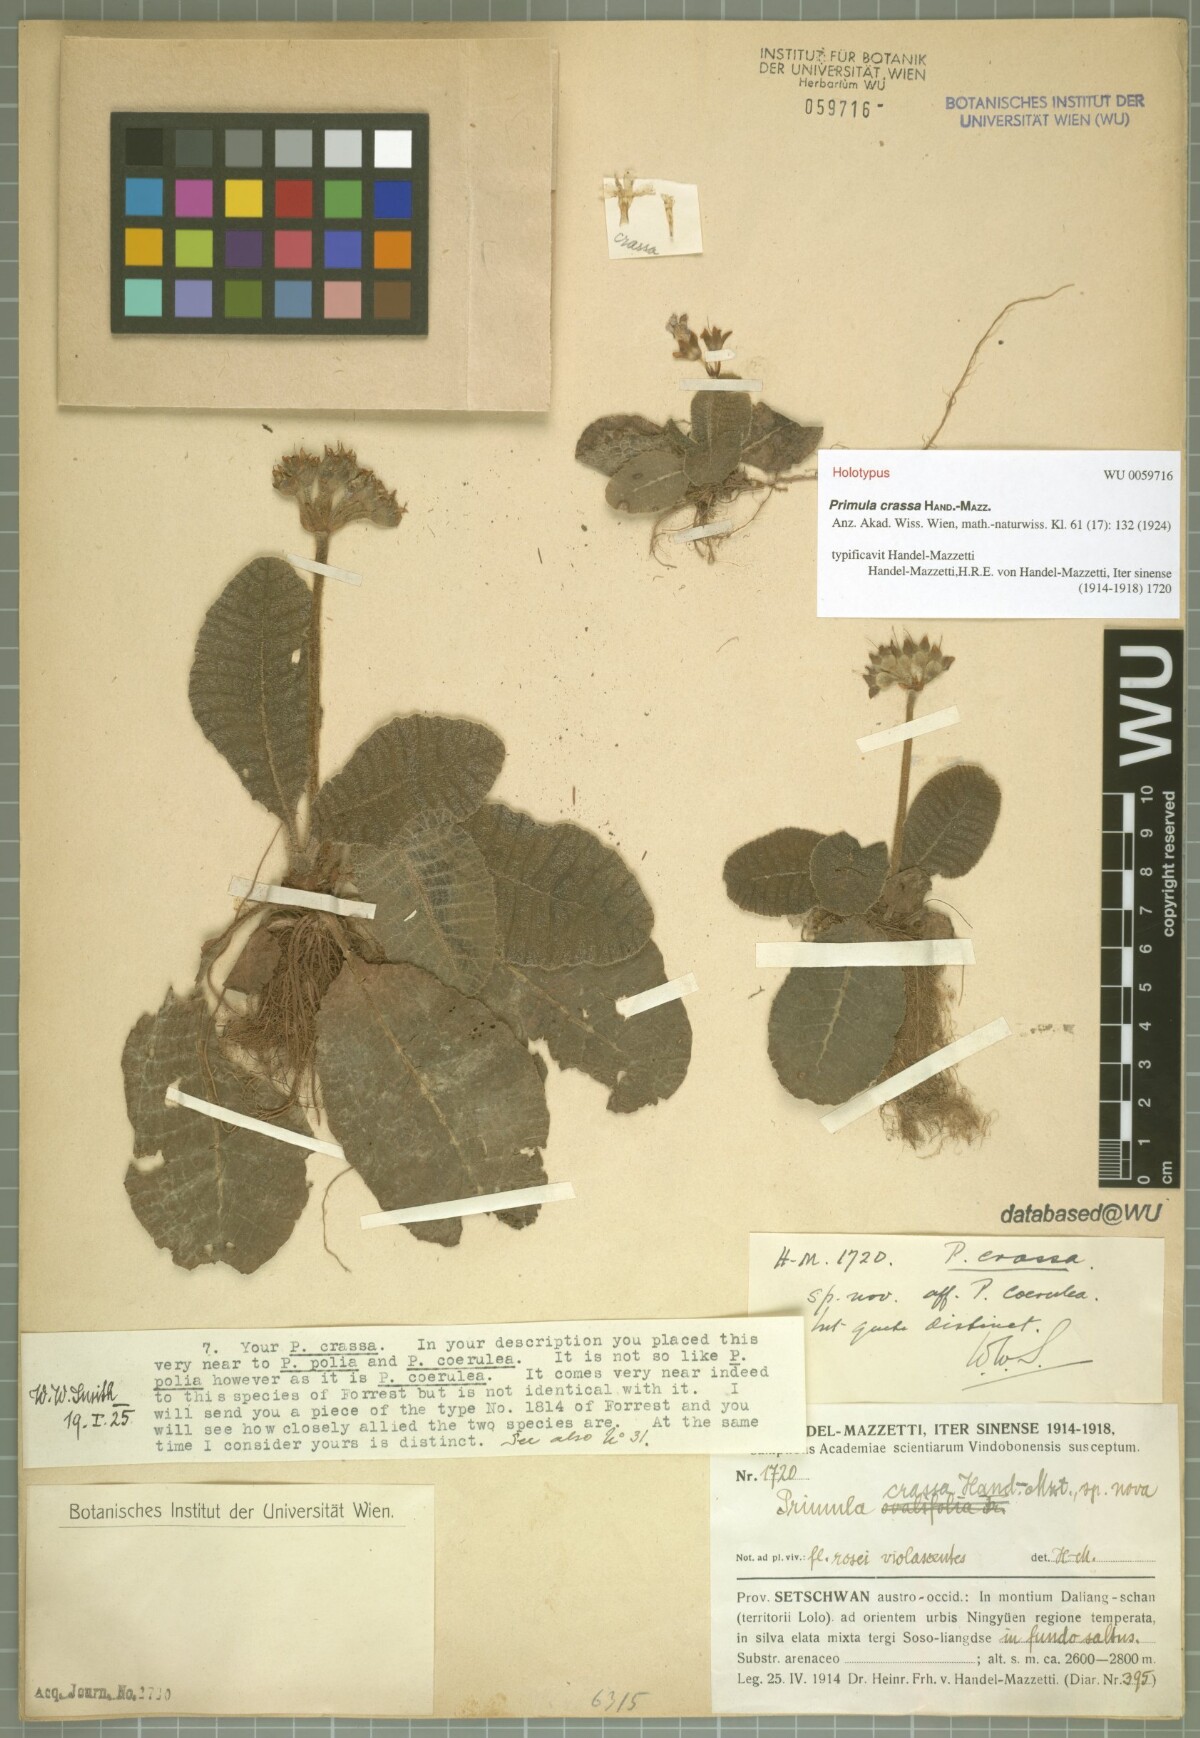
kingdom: Plantae
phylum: Tracheophyta
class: Magnoliopsida
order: Ericales
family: Primulaceae
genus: Primula
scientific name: Primula crassa
